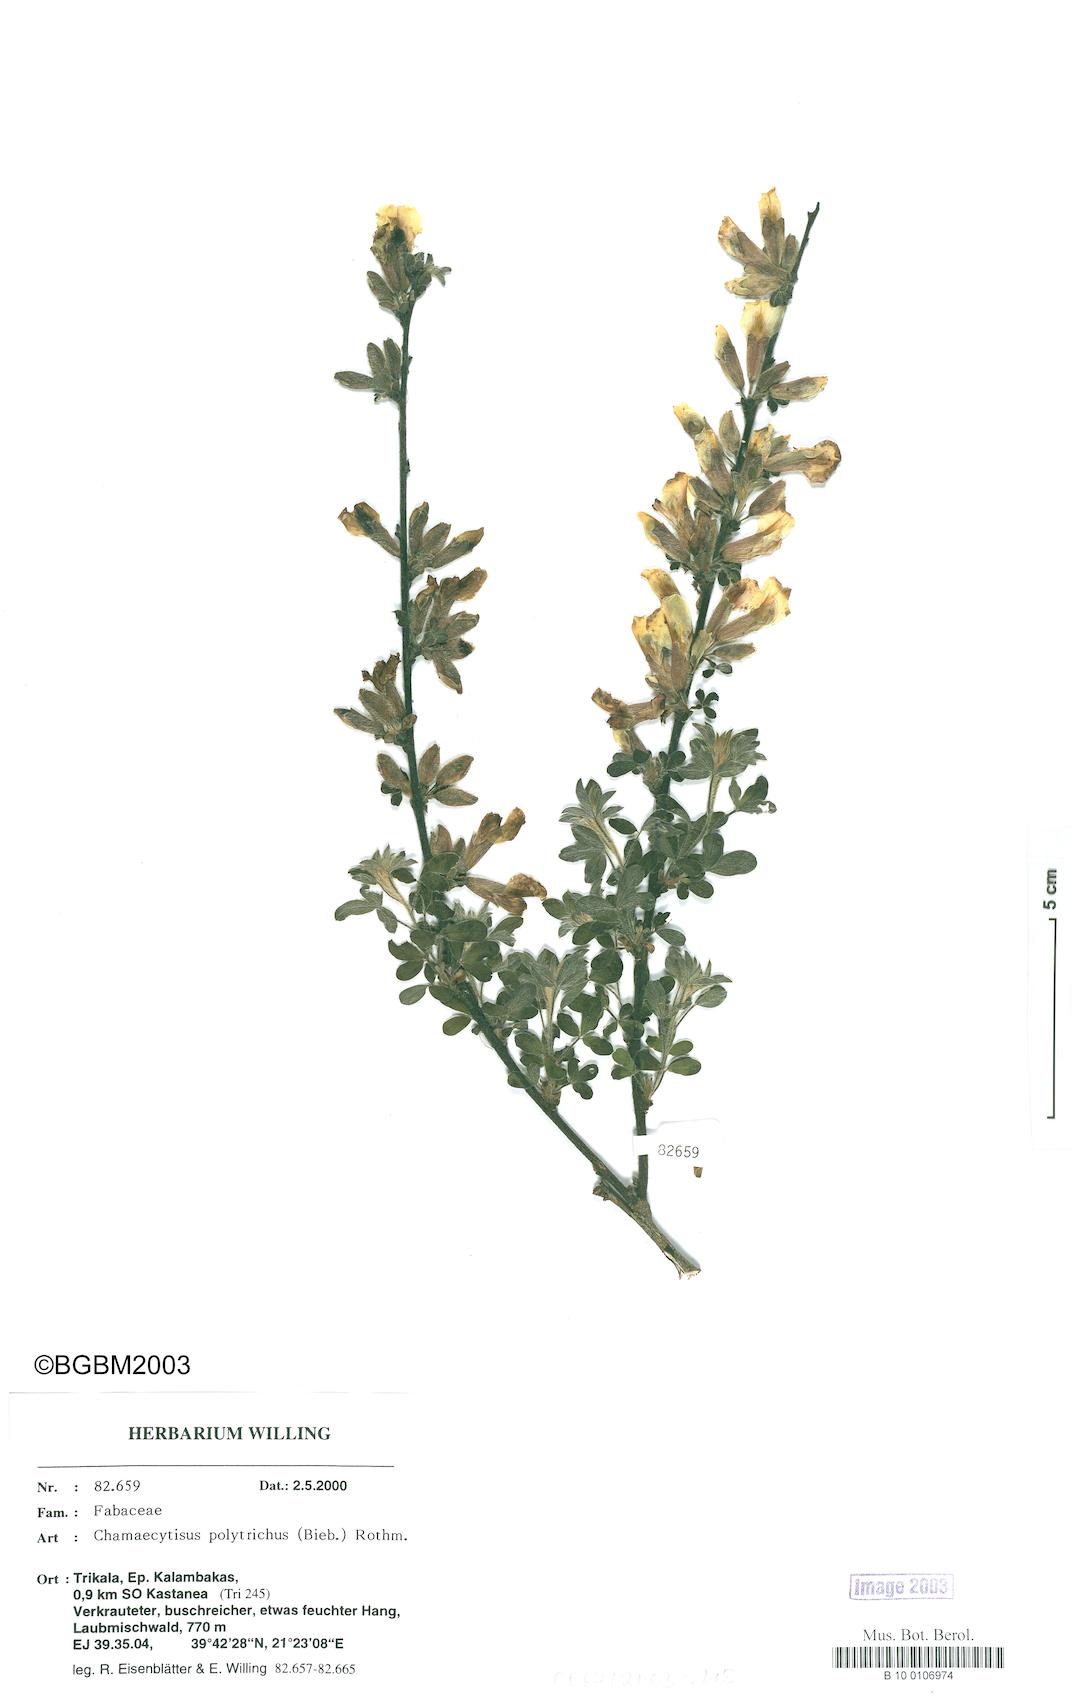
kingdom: Plantae
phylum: Tracheophyta
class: Magnoliopsida
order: Fabales
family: Fabaceae
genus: Chamaecytisus
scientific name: Chamaecytisus hirsutus
